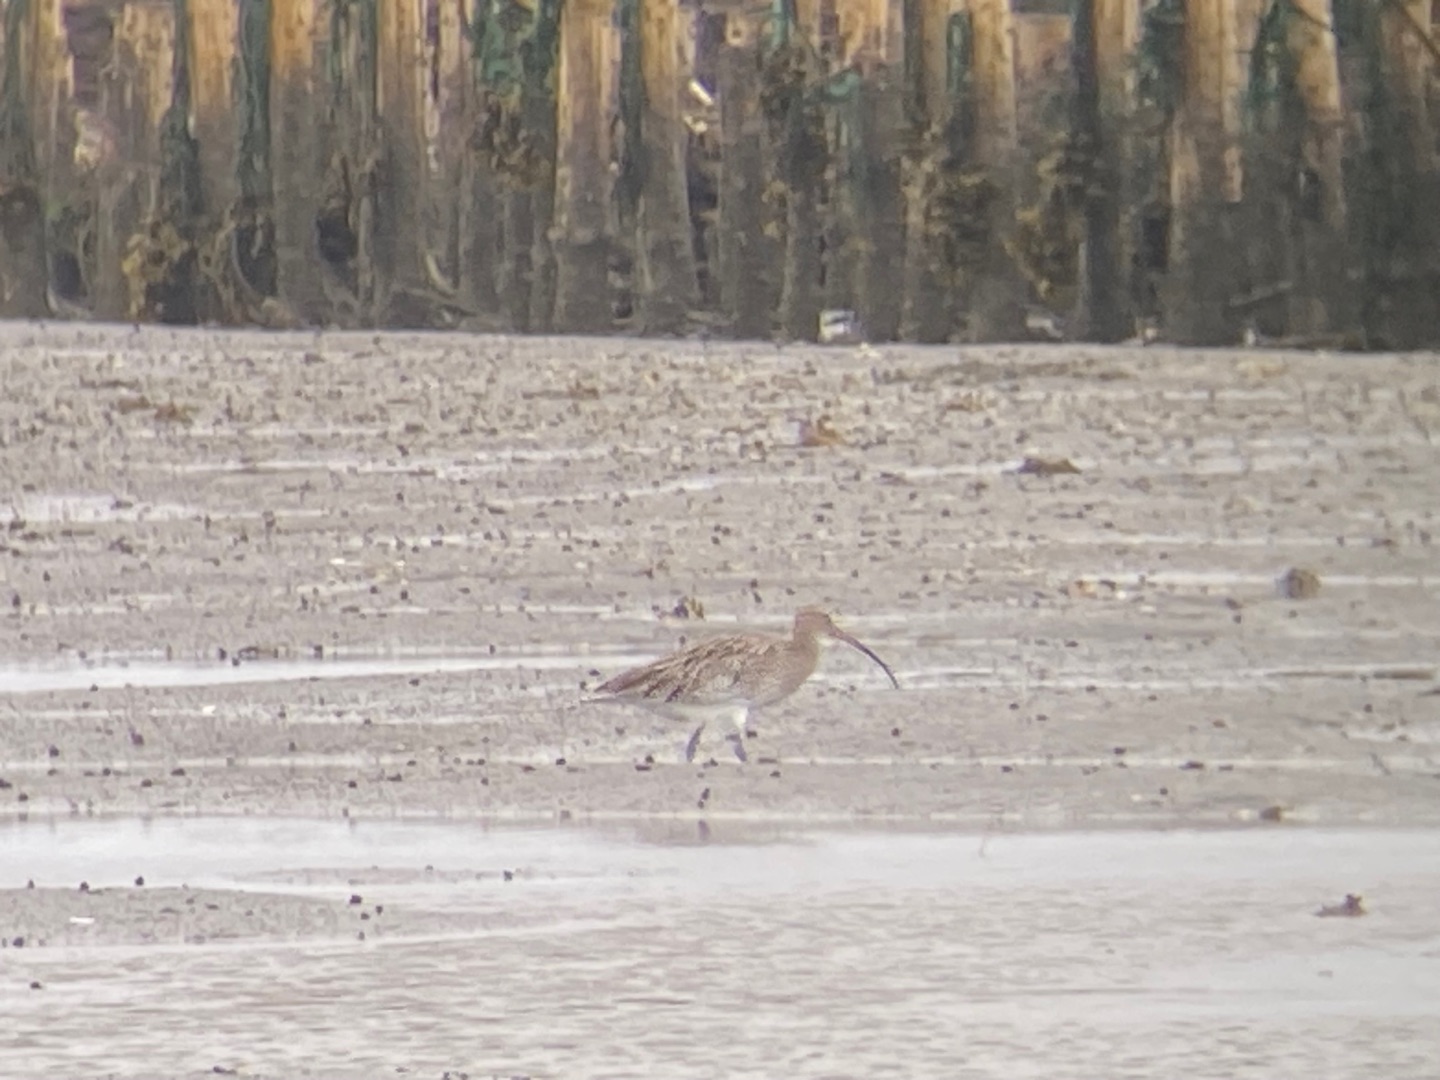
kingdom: Animalia
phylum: Chordata
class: Aves
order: Charadriiformes
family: Scolopacidae
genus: Numenius
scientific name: Numenius arquata
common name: Storspove
